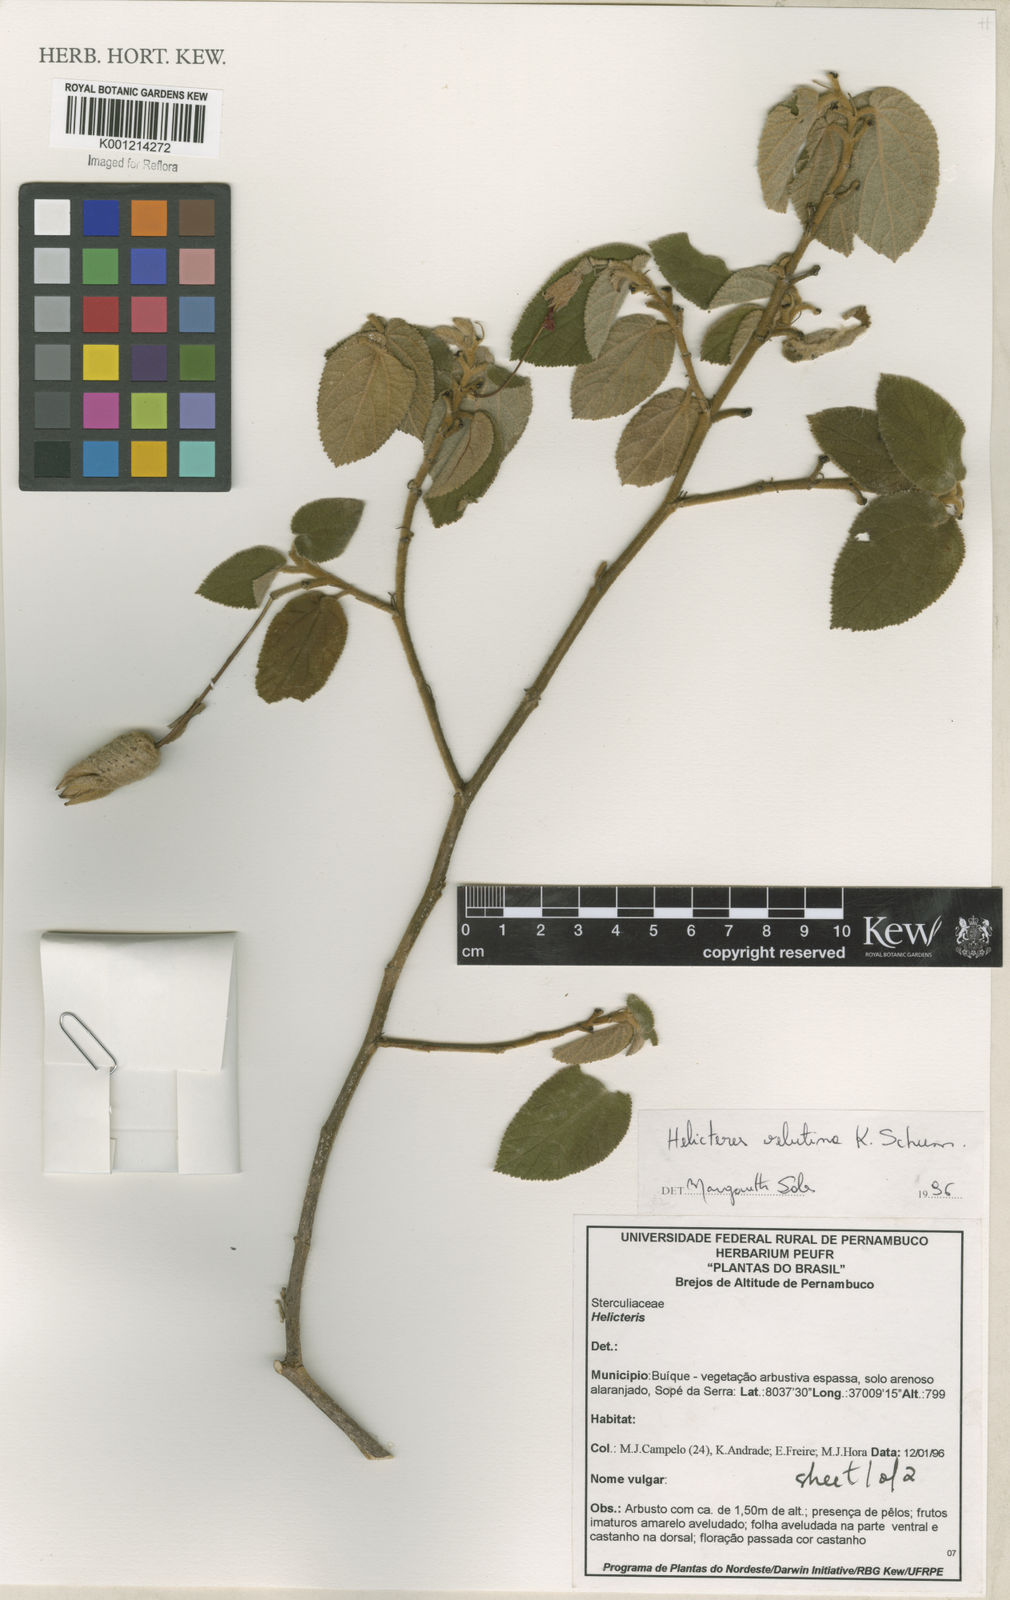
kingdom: Plantae
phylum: Tracheophyta
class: Magnoliopsida
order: Malvales
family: Malvaceae
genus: Helicteres
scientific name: Helicteres velutina
